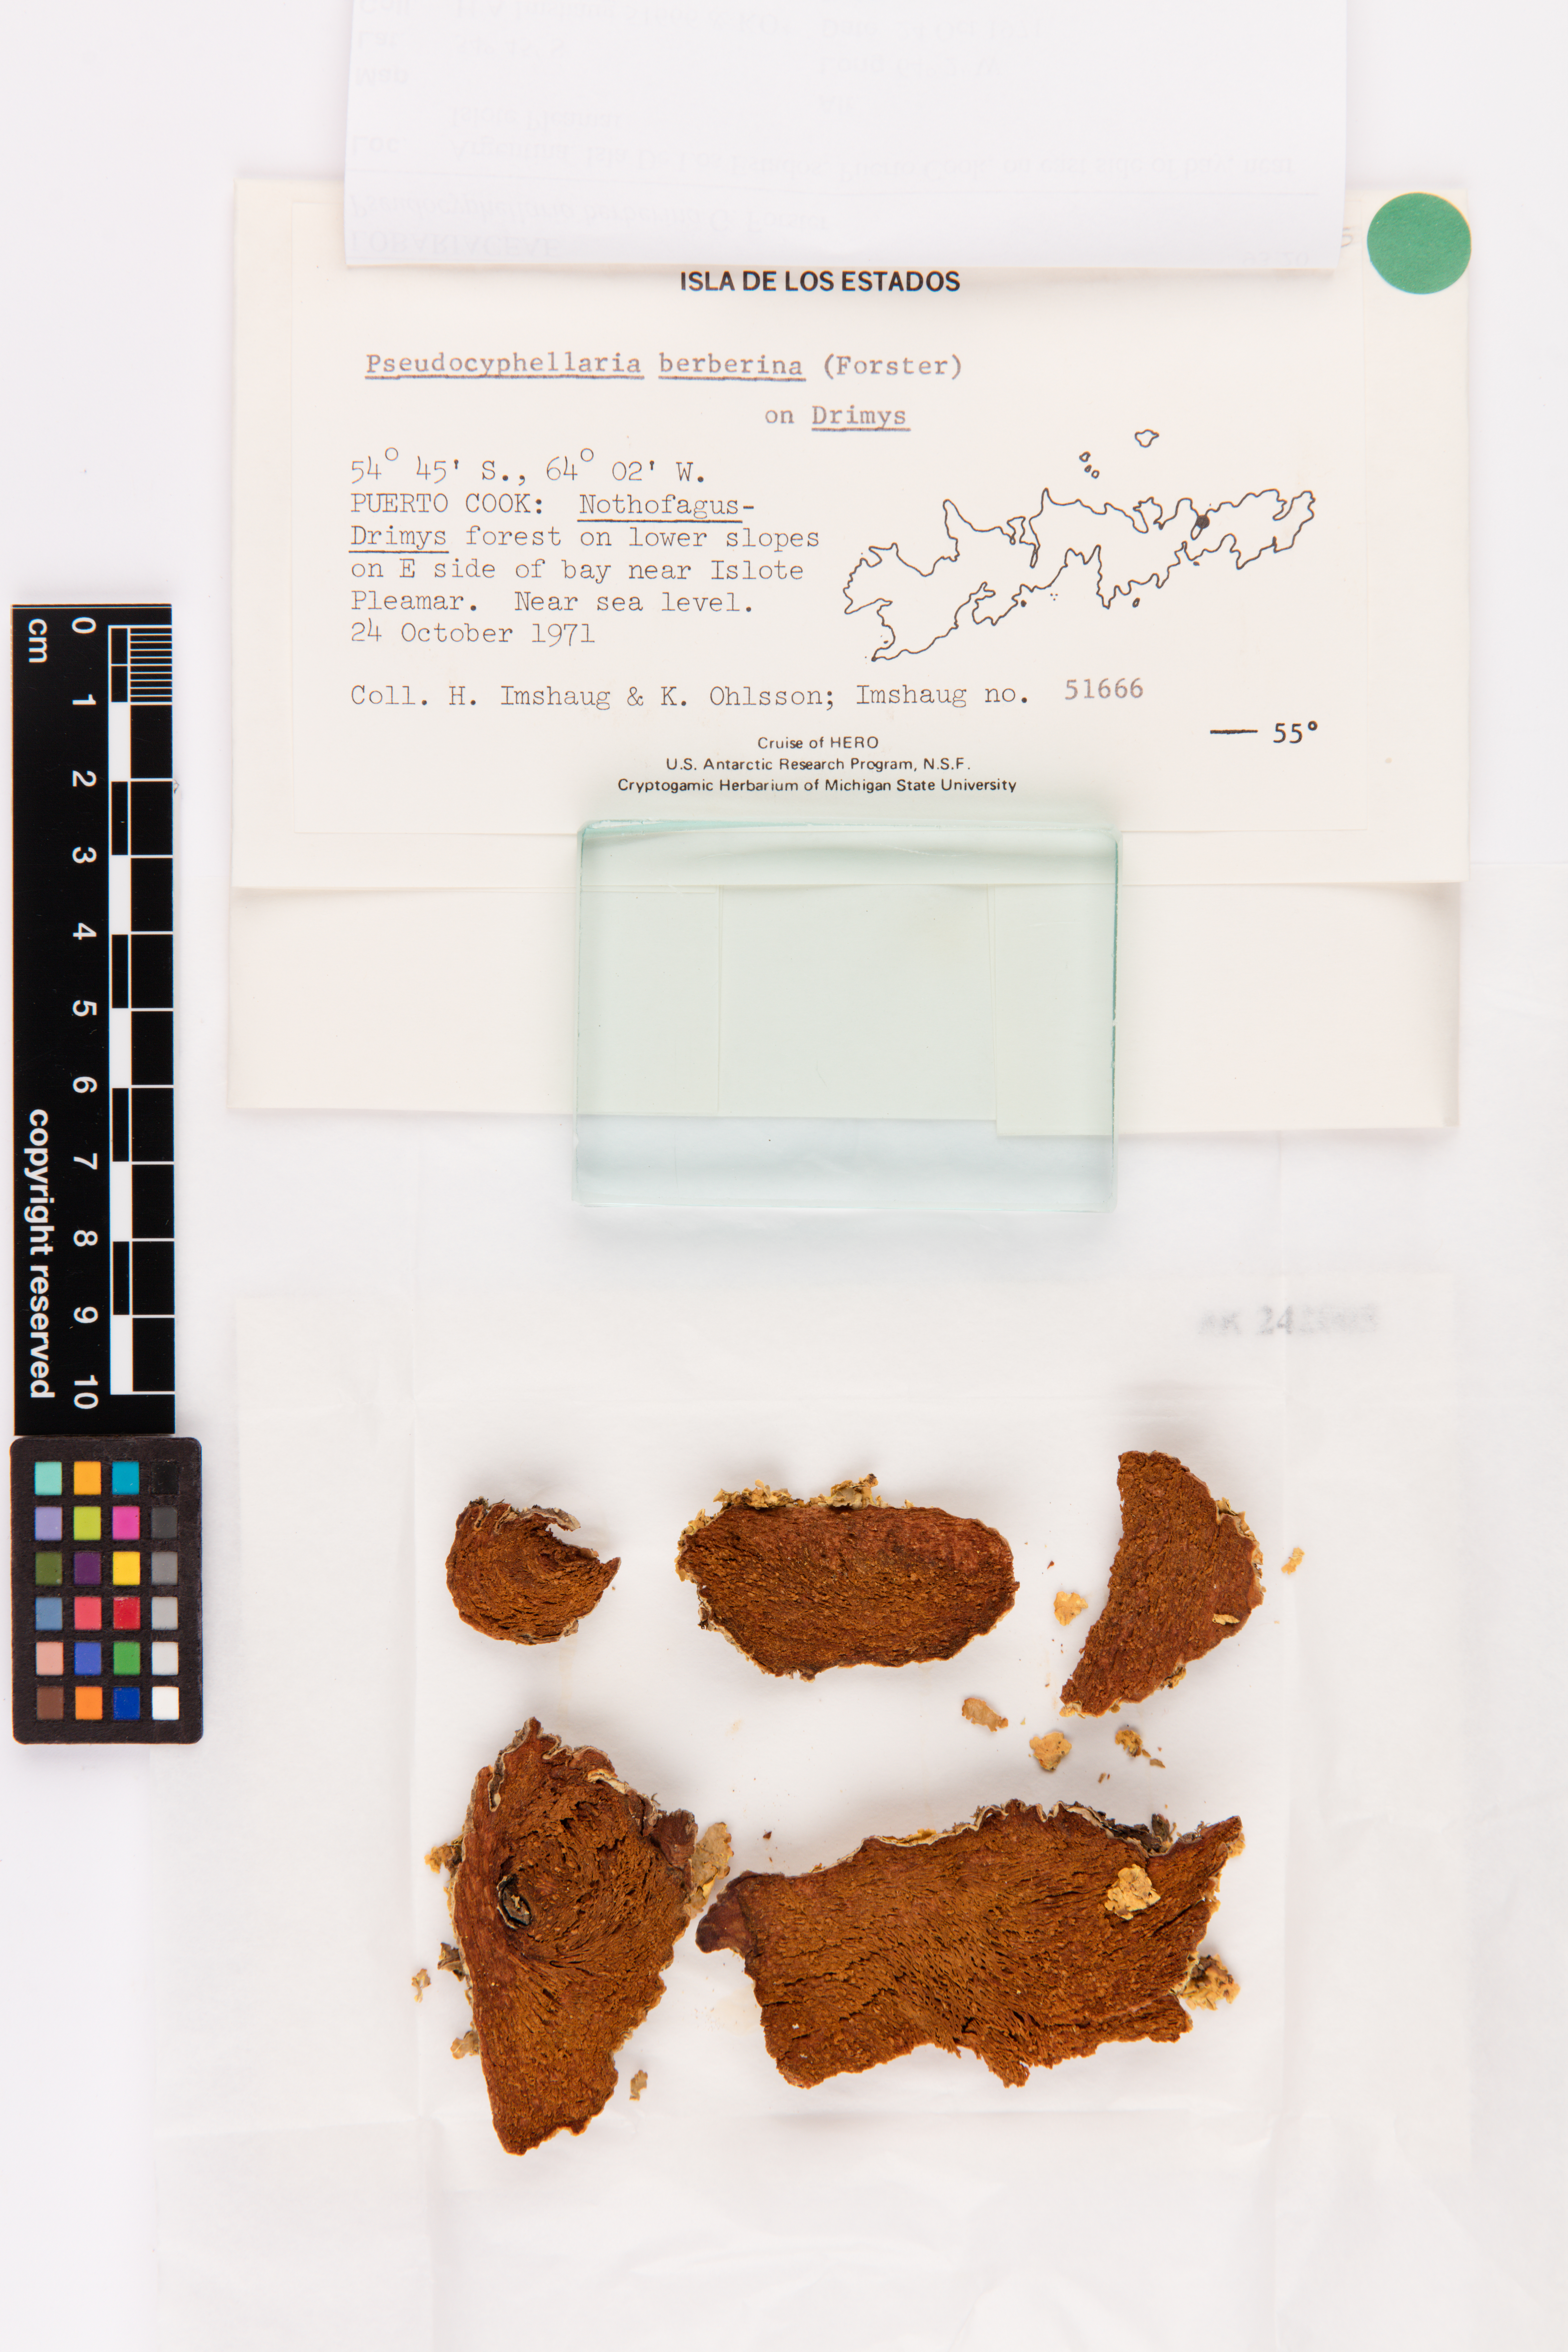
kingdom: Fungi
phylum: Ascomycota
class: Lecanoromycetes
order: Peltigerales
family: Lobariaceae
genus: Podostictina
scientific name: Podostictina berberina
